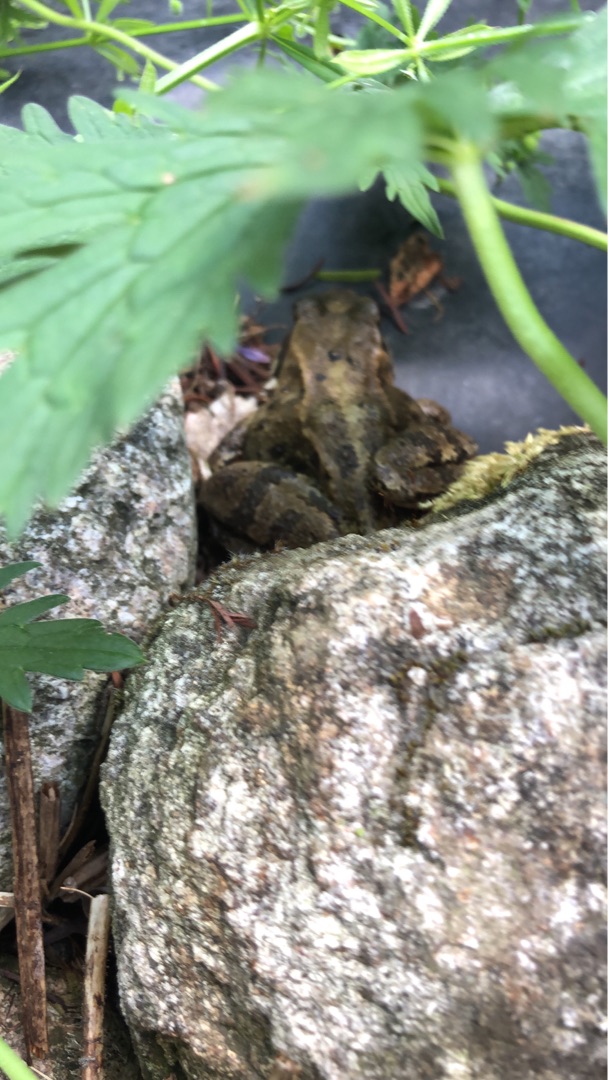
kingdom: Animalia
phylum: Chordata
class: Amphibia
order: Anura
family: Ranidae
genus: Rana
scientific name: Rana temporaria
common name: Butsnudet frø
